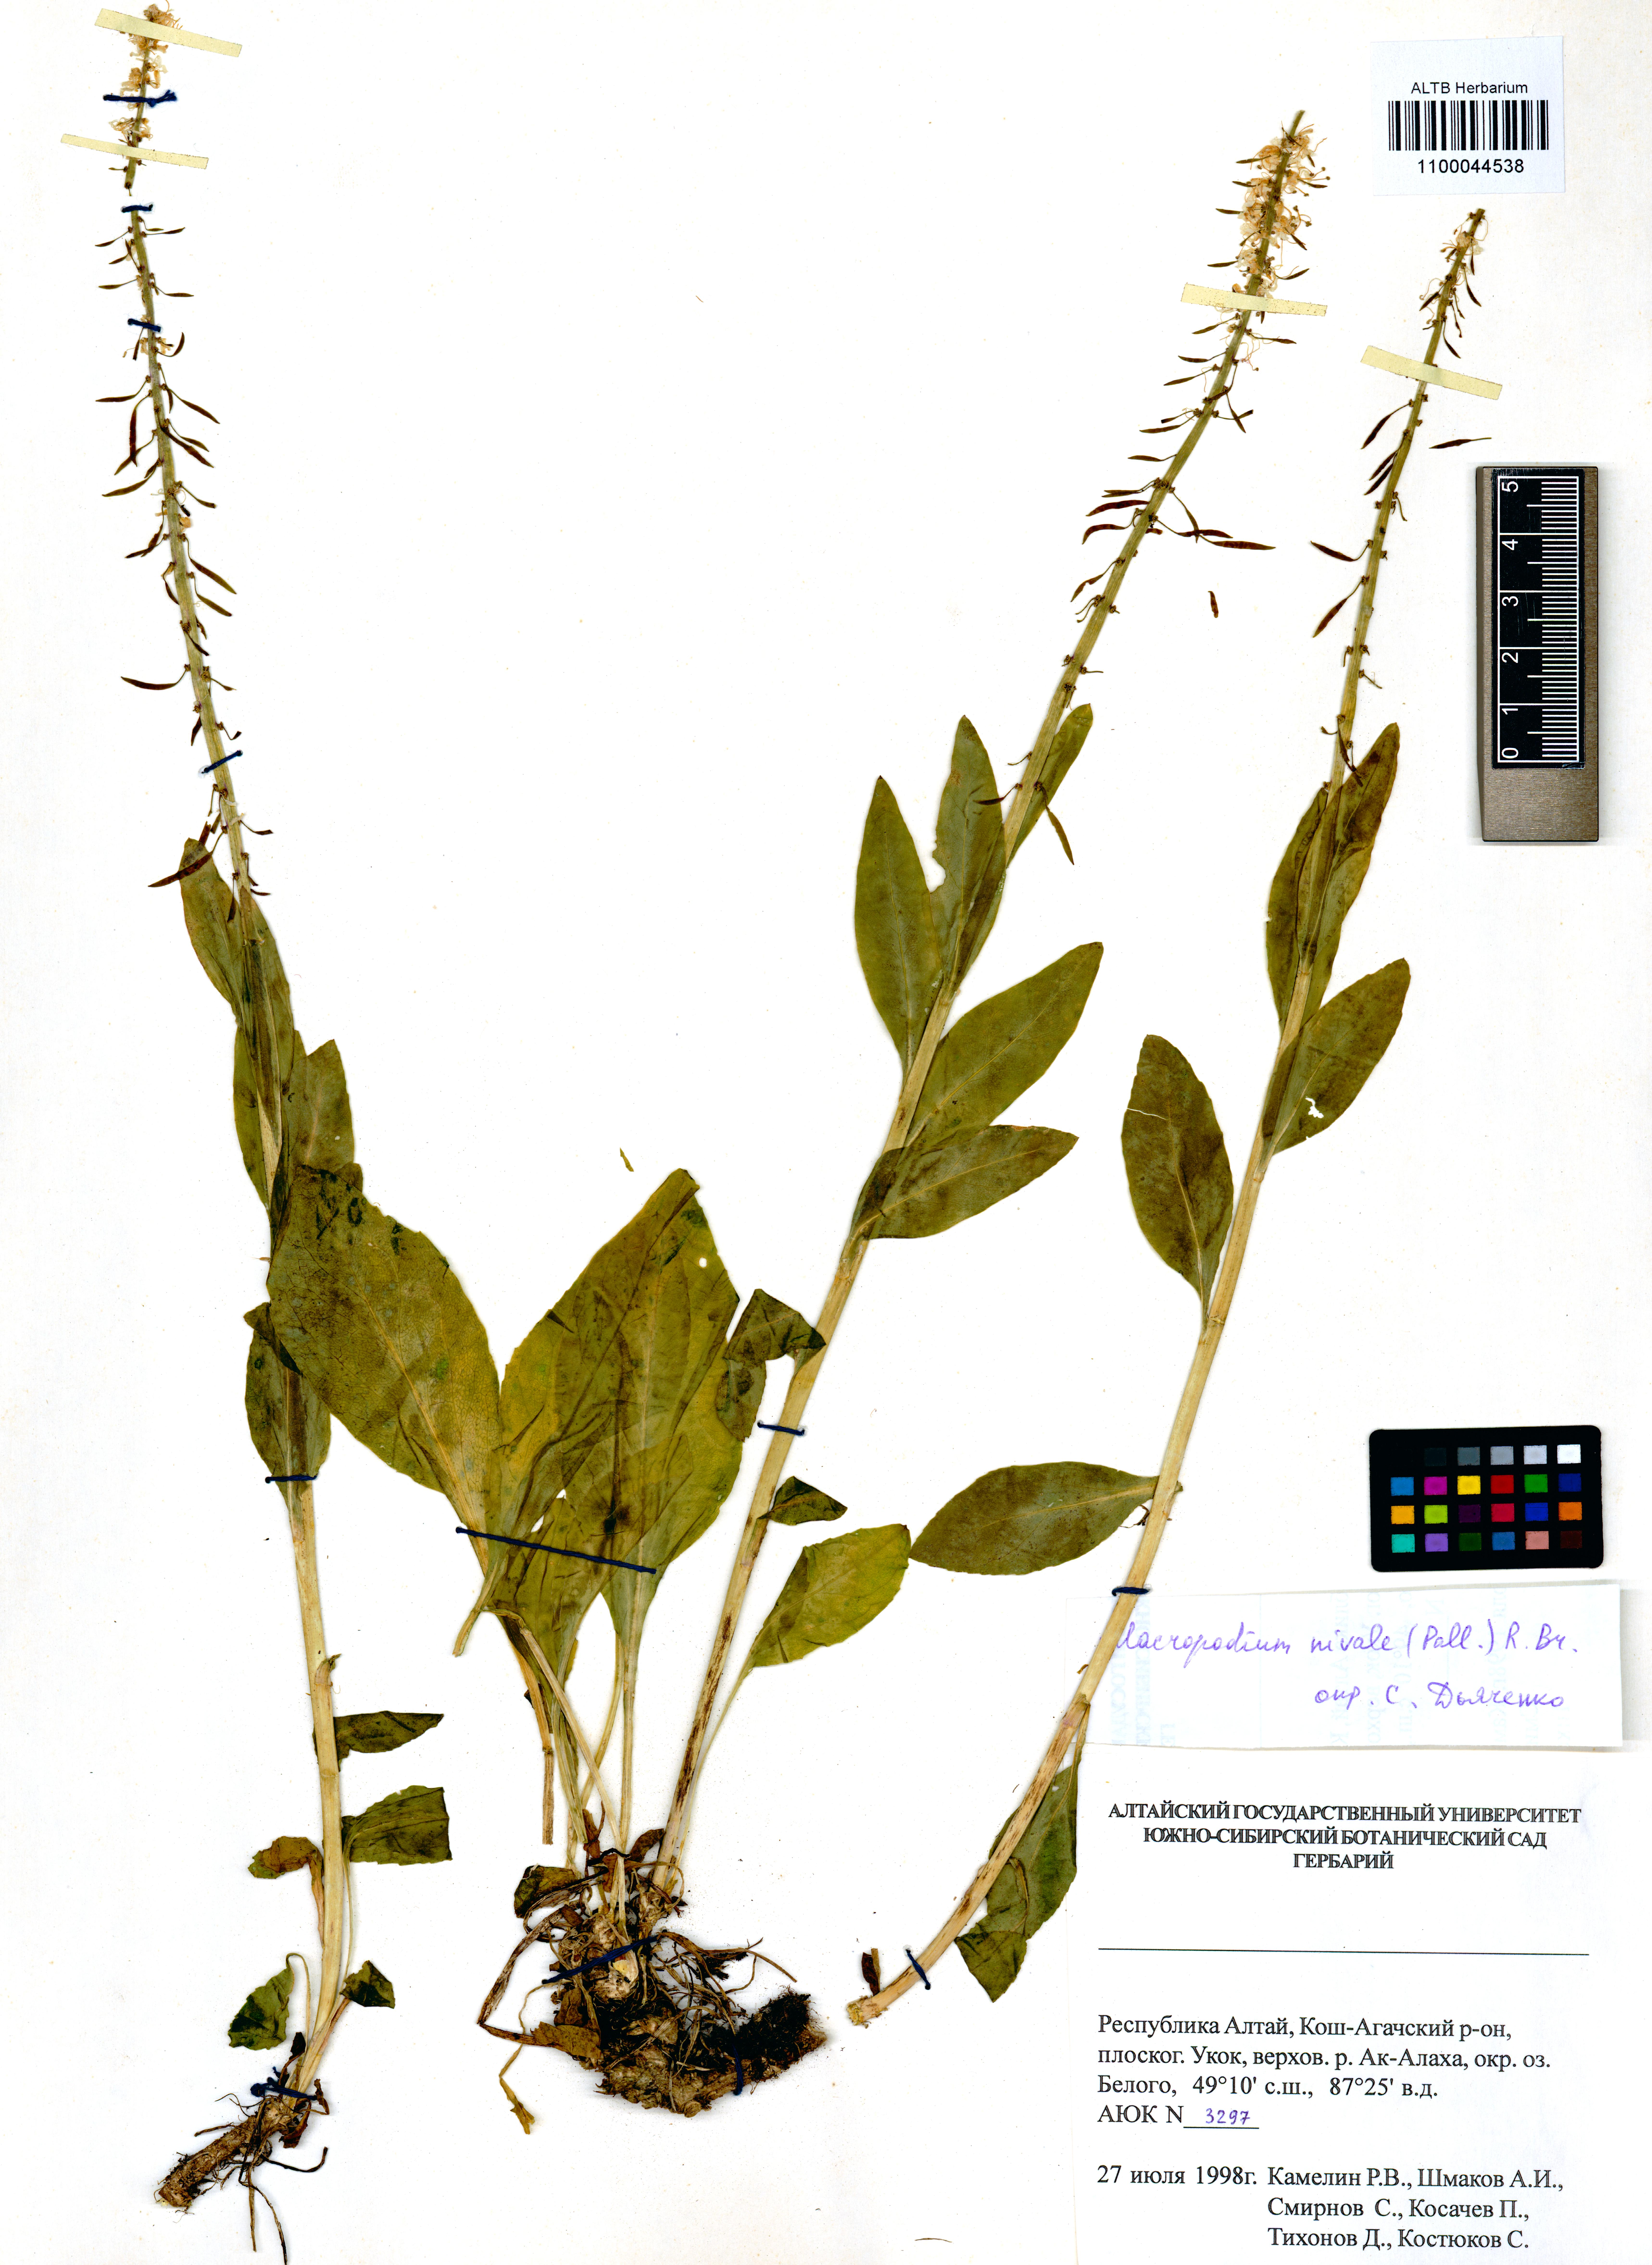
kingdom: Plantae
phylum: Tracheophyta
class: Magnoliopsida
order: Brassicales
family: Brassicaceae
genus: Macropodium
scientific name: Macropodium nivale
